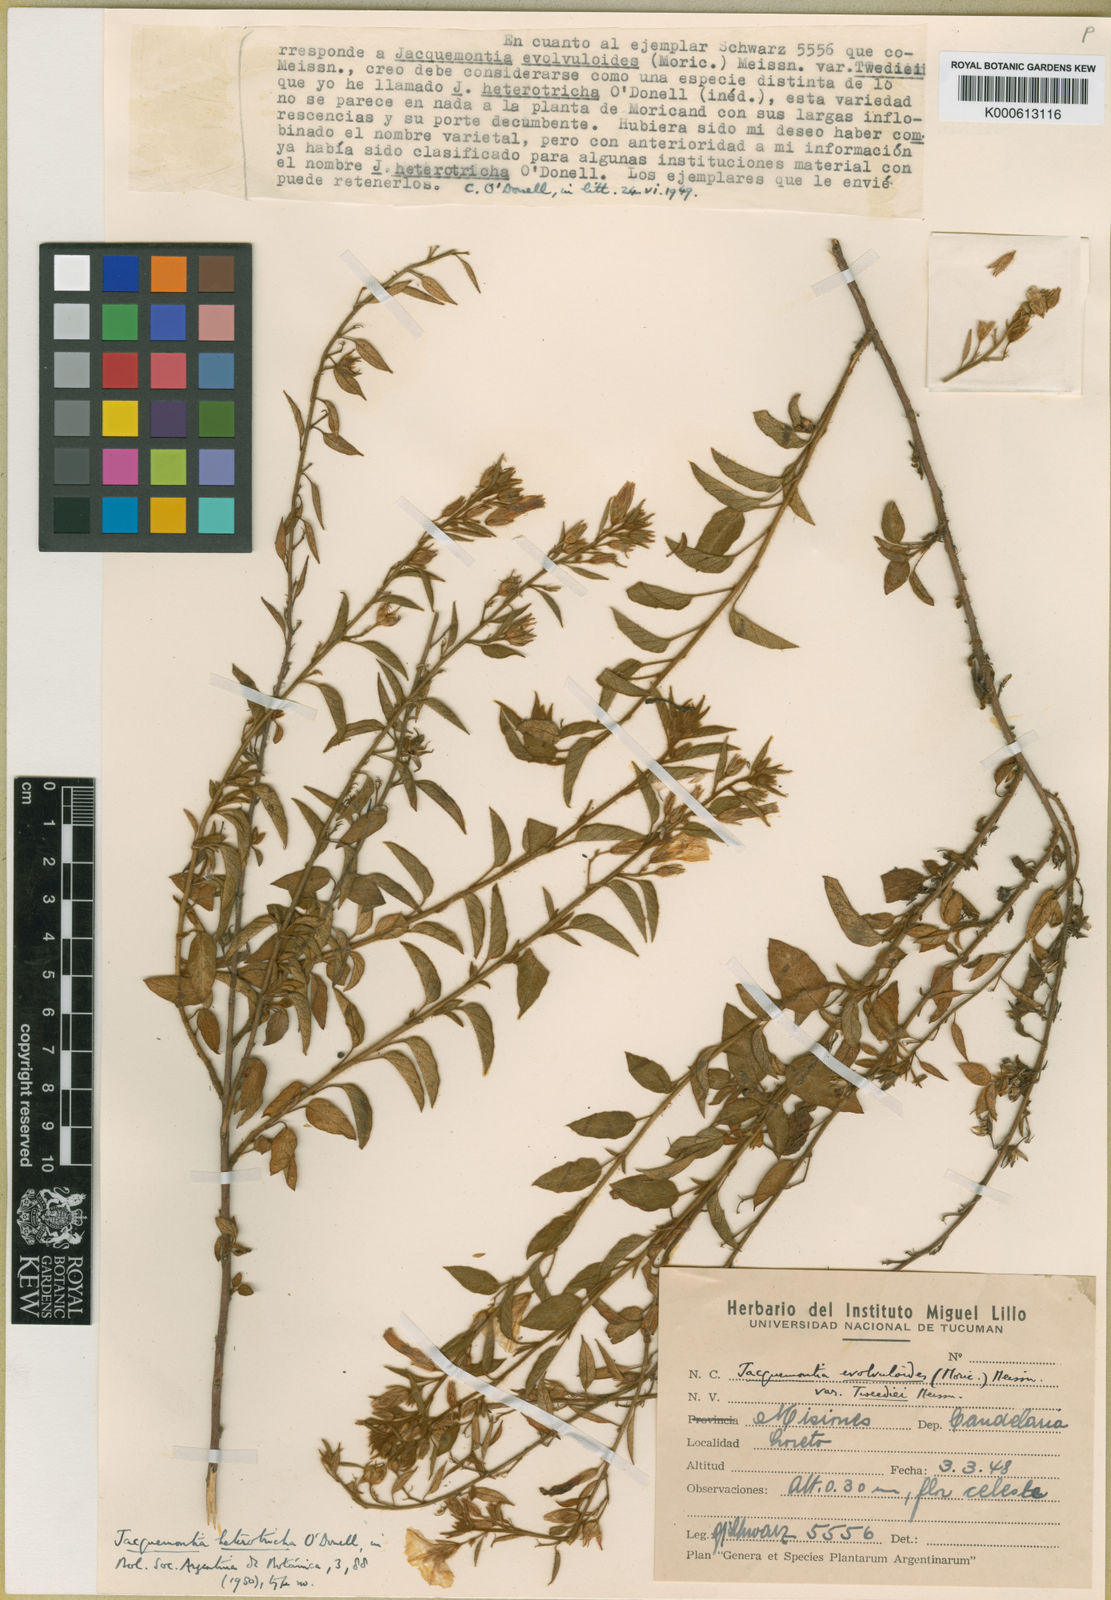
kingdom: Plantae
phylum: Tracheophyta
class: Magnoliopsida
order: Solanales
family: Convolvulaceae
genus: Jacquemontia
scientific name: Jacquemontia heterotricha
